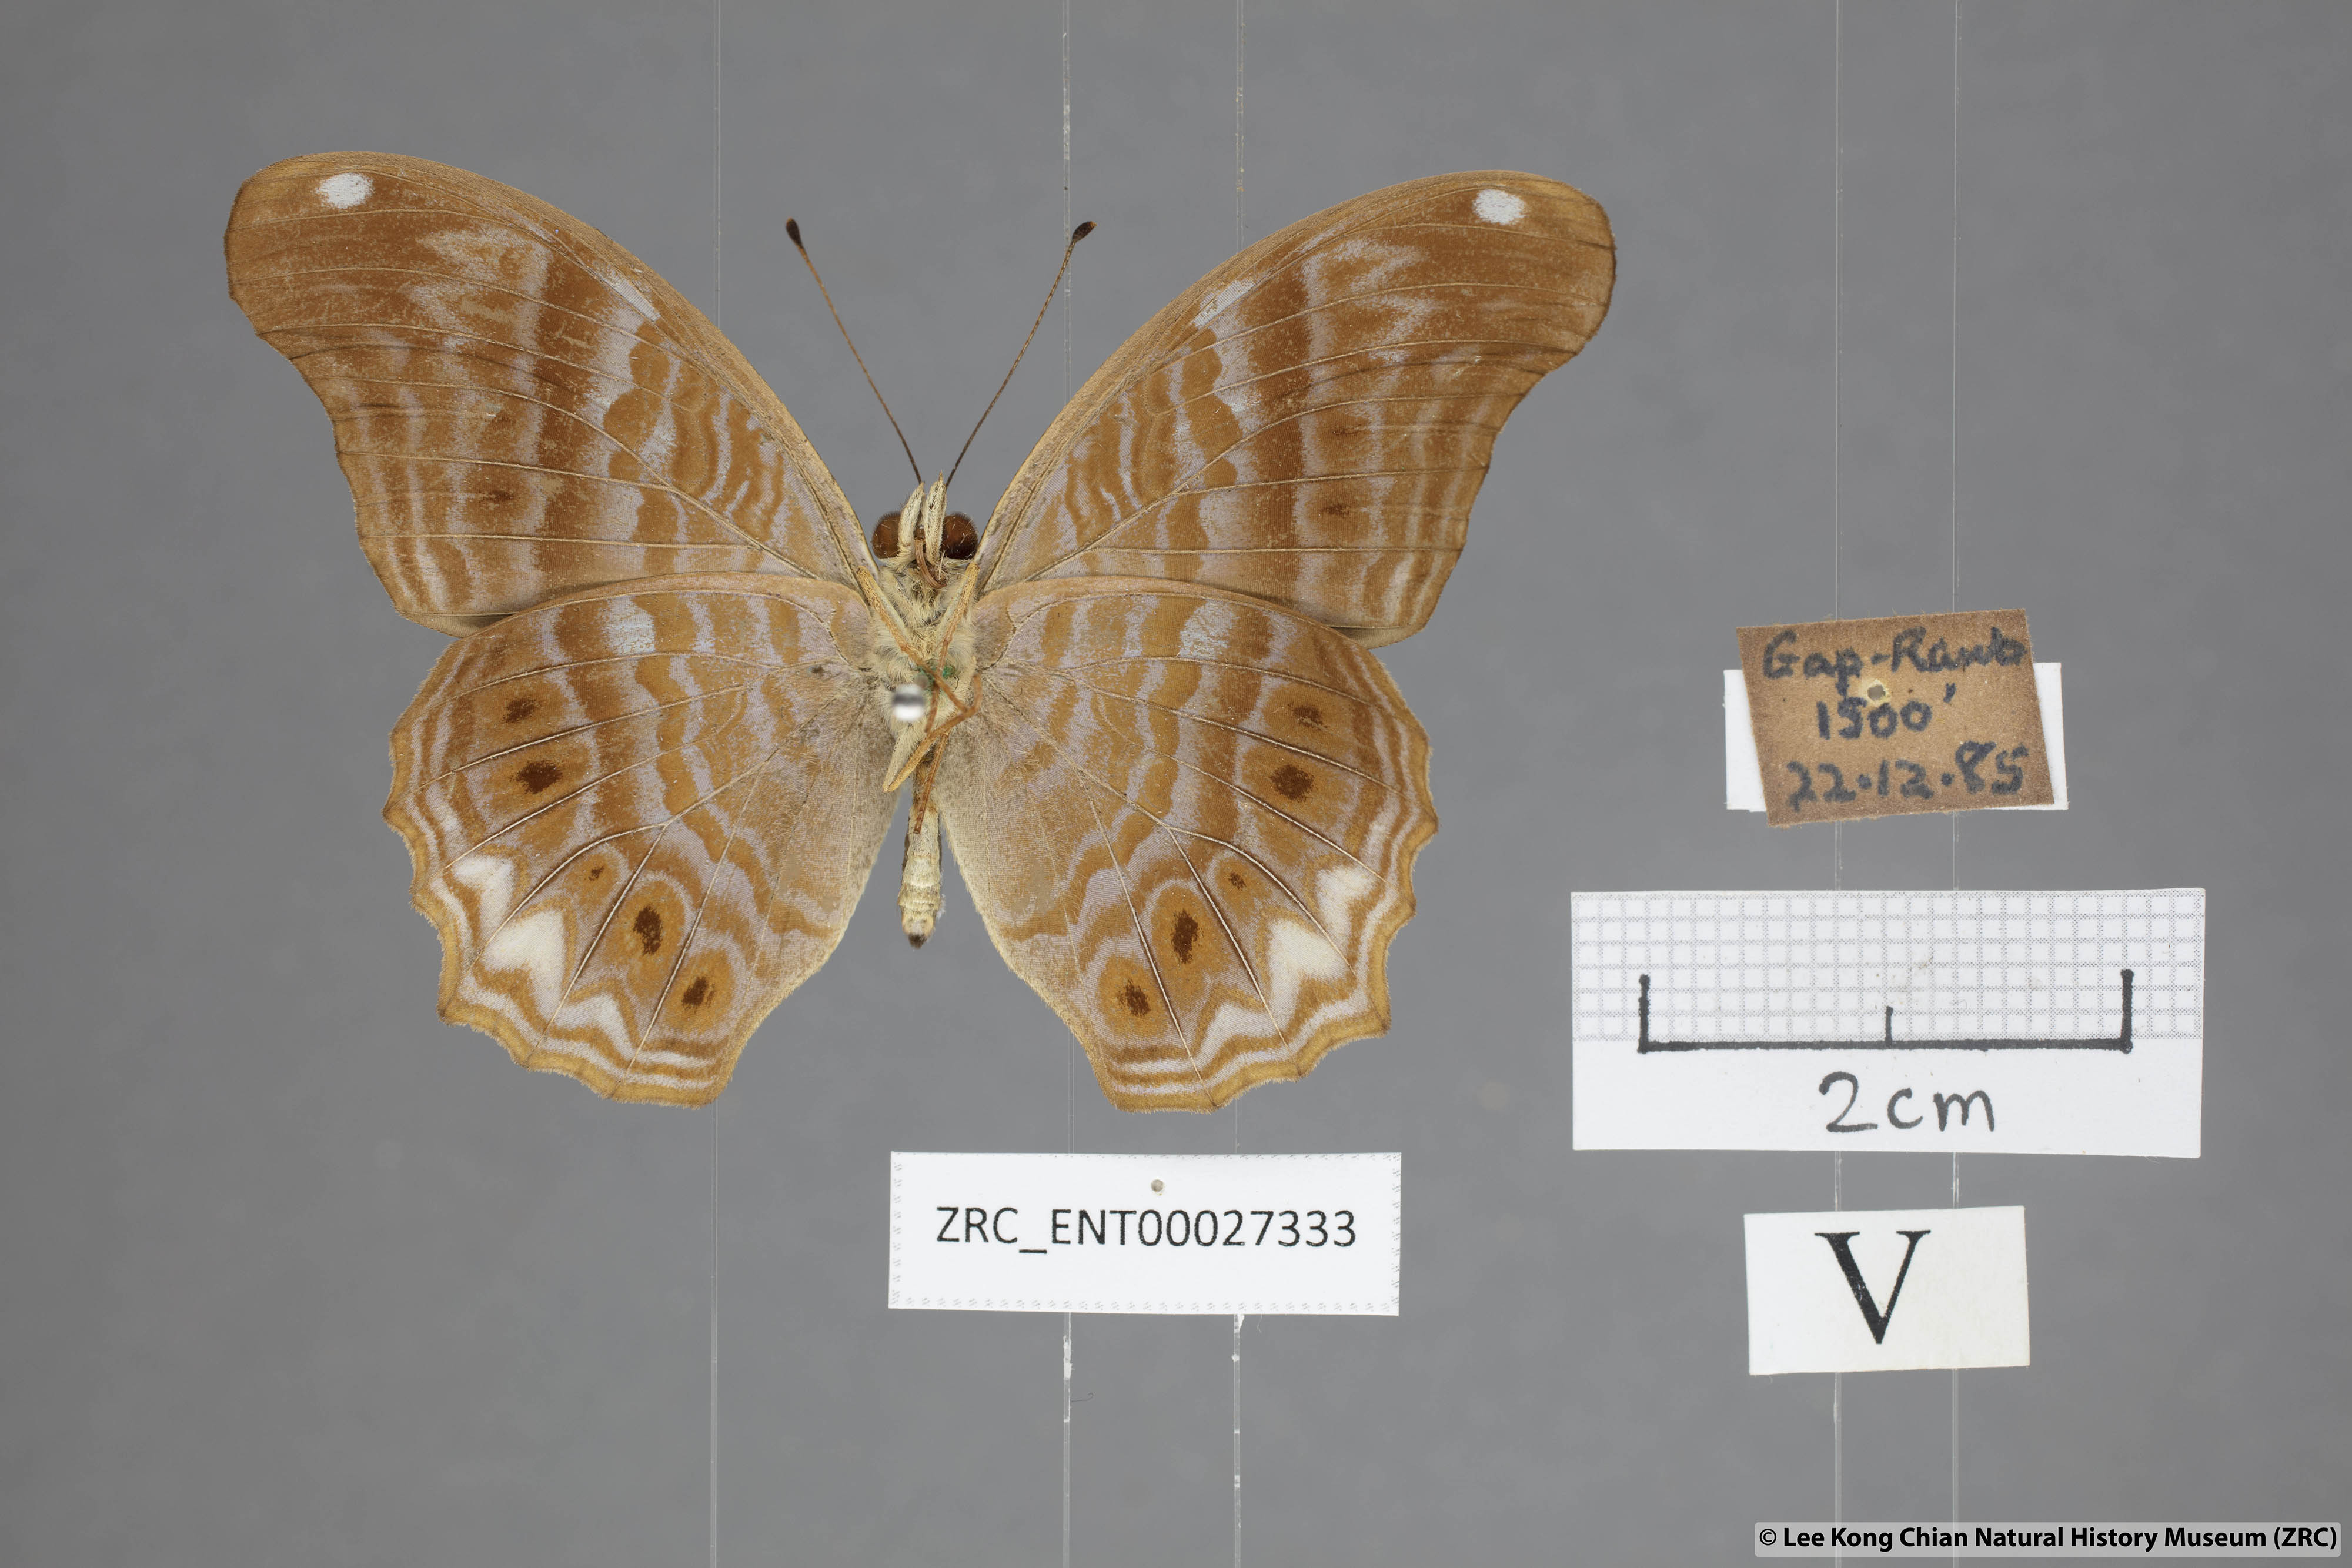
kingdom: Animalia
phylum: Arthropoda
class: Insecta
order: Lepidoptera
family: Nymphalidae
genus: Terinos
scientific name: Terinos terpander
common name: Royal assyrian
